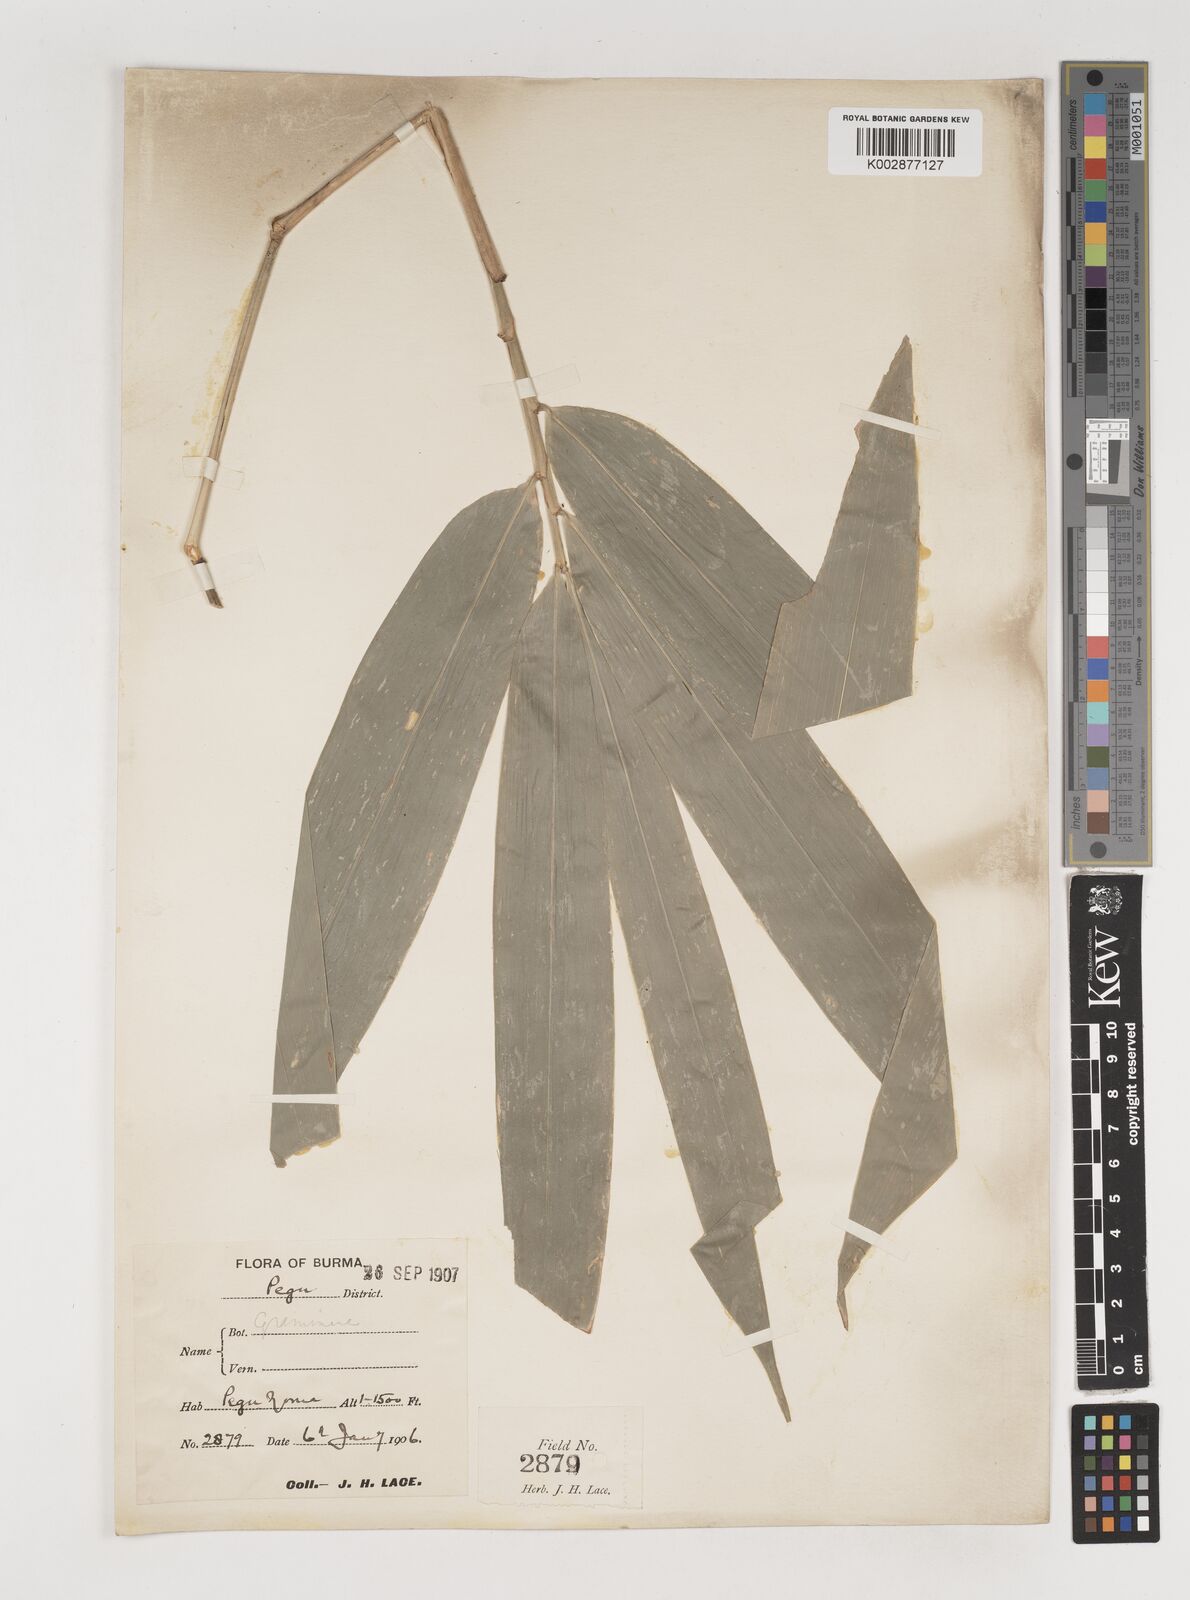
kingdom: Plantae
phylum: Tracheophyta
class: Liliopsida
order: Poales
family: Poaceae
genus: Bambusa
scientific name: Bambusa
